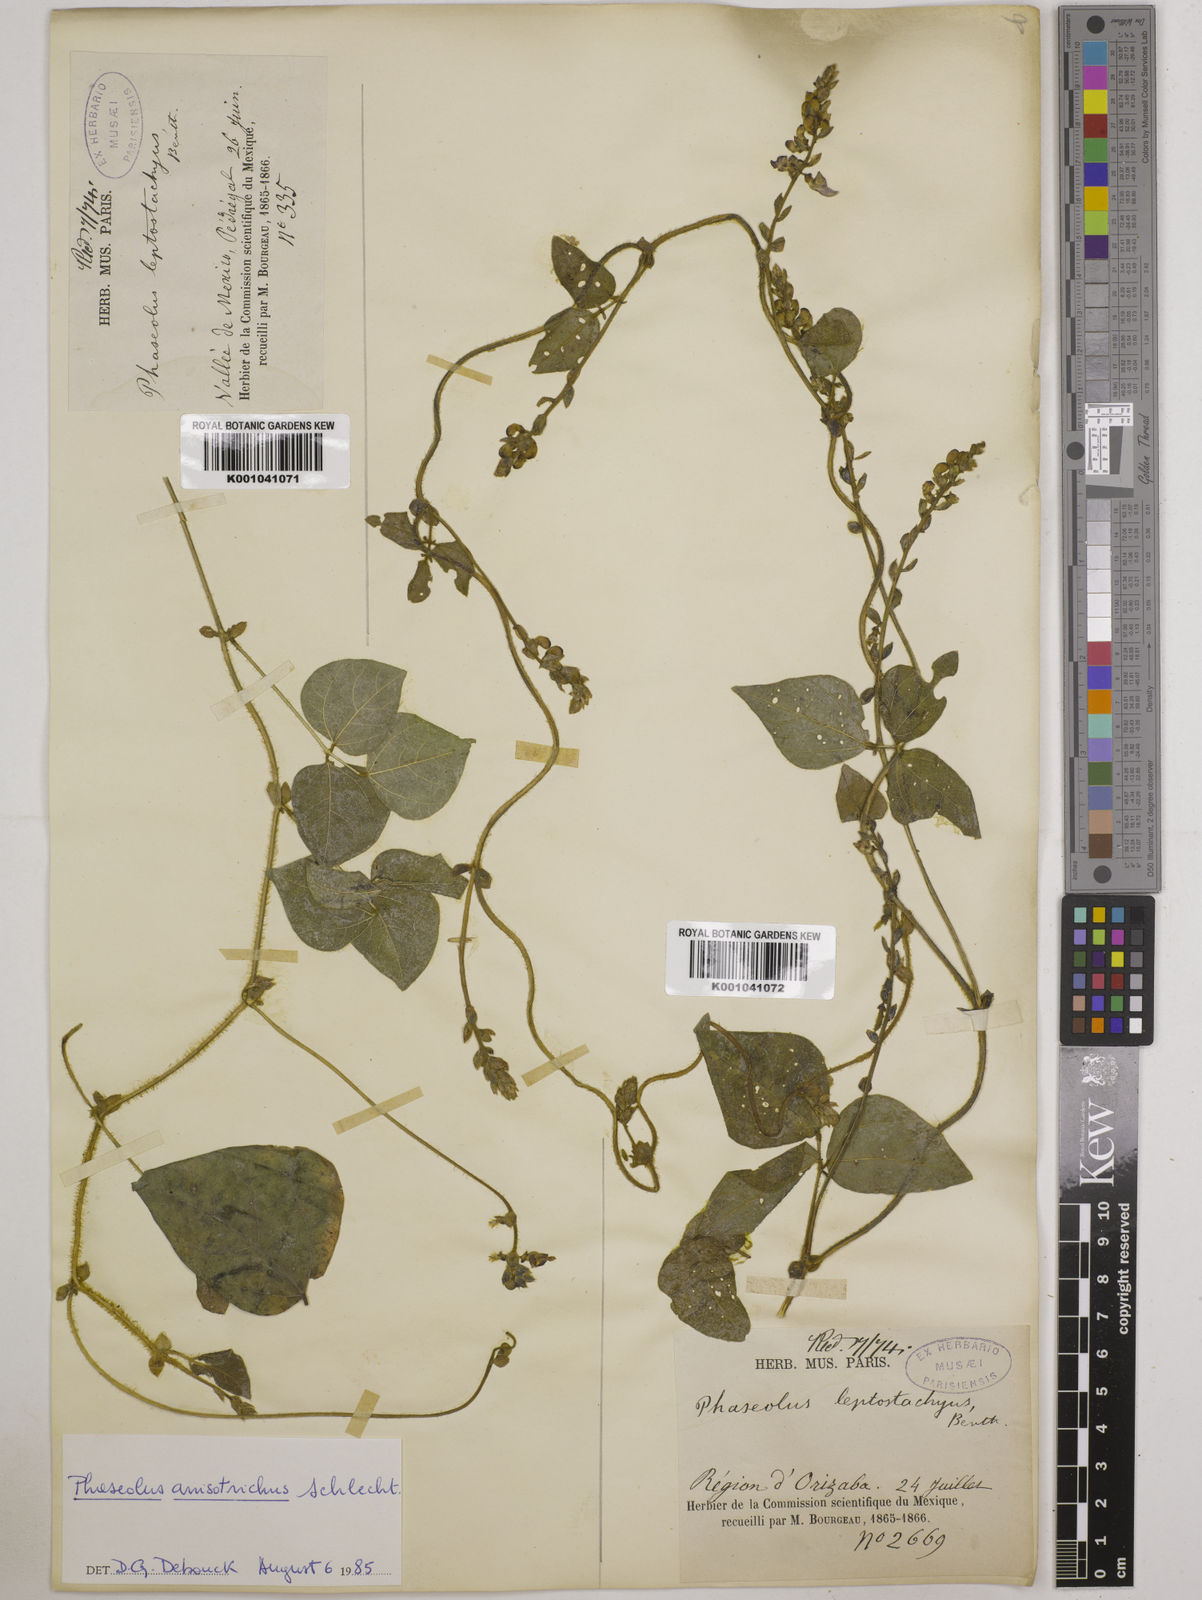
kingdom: Plantae
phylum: Tracheophyta
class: Magnoliopsida
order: Fabales
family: Fabaceae
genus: Phaseolus
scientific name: Phaseolus
